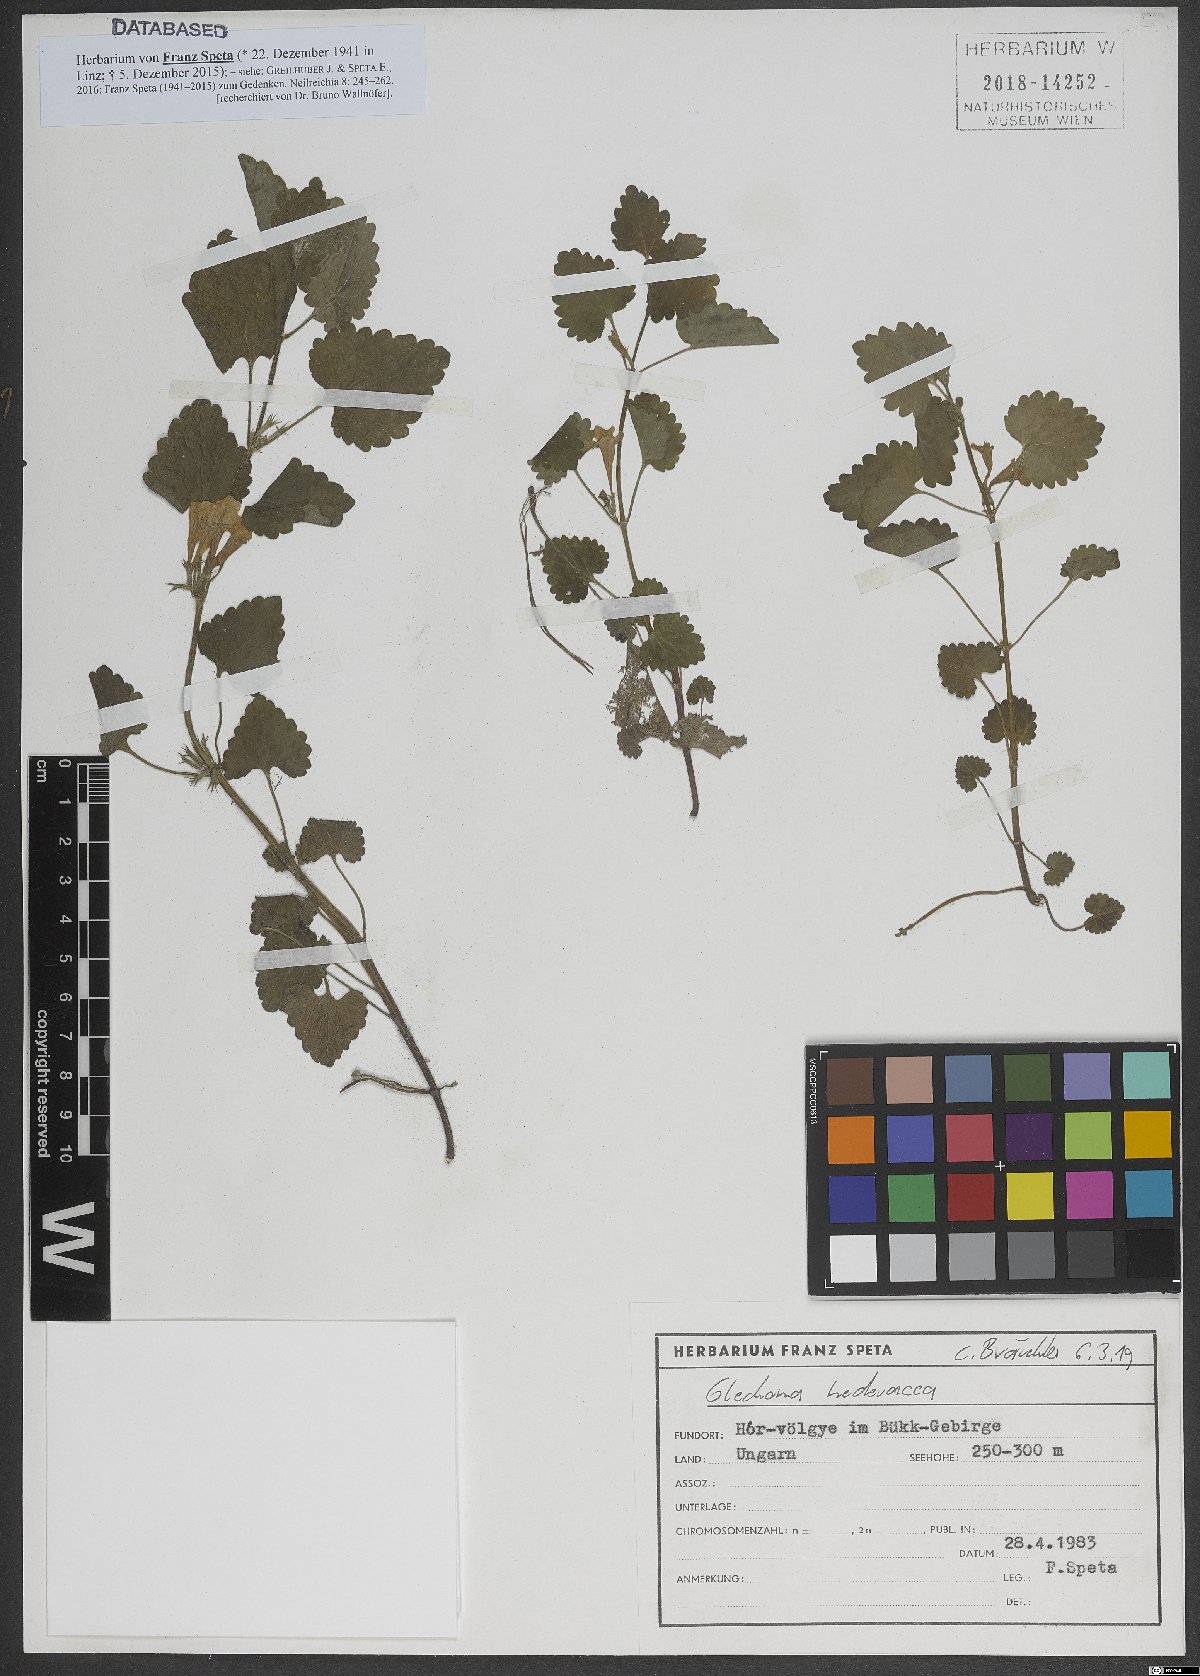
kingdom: Plantae
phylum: Tracheophyta
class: Magnoliopsida
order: Lamiales
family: Lamiaceae
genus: Glechoma
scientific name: Glechoma hederacea
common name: Ground ivy
